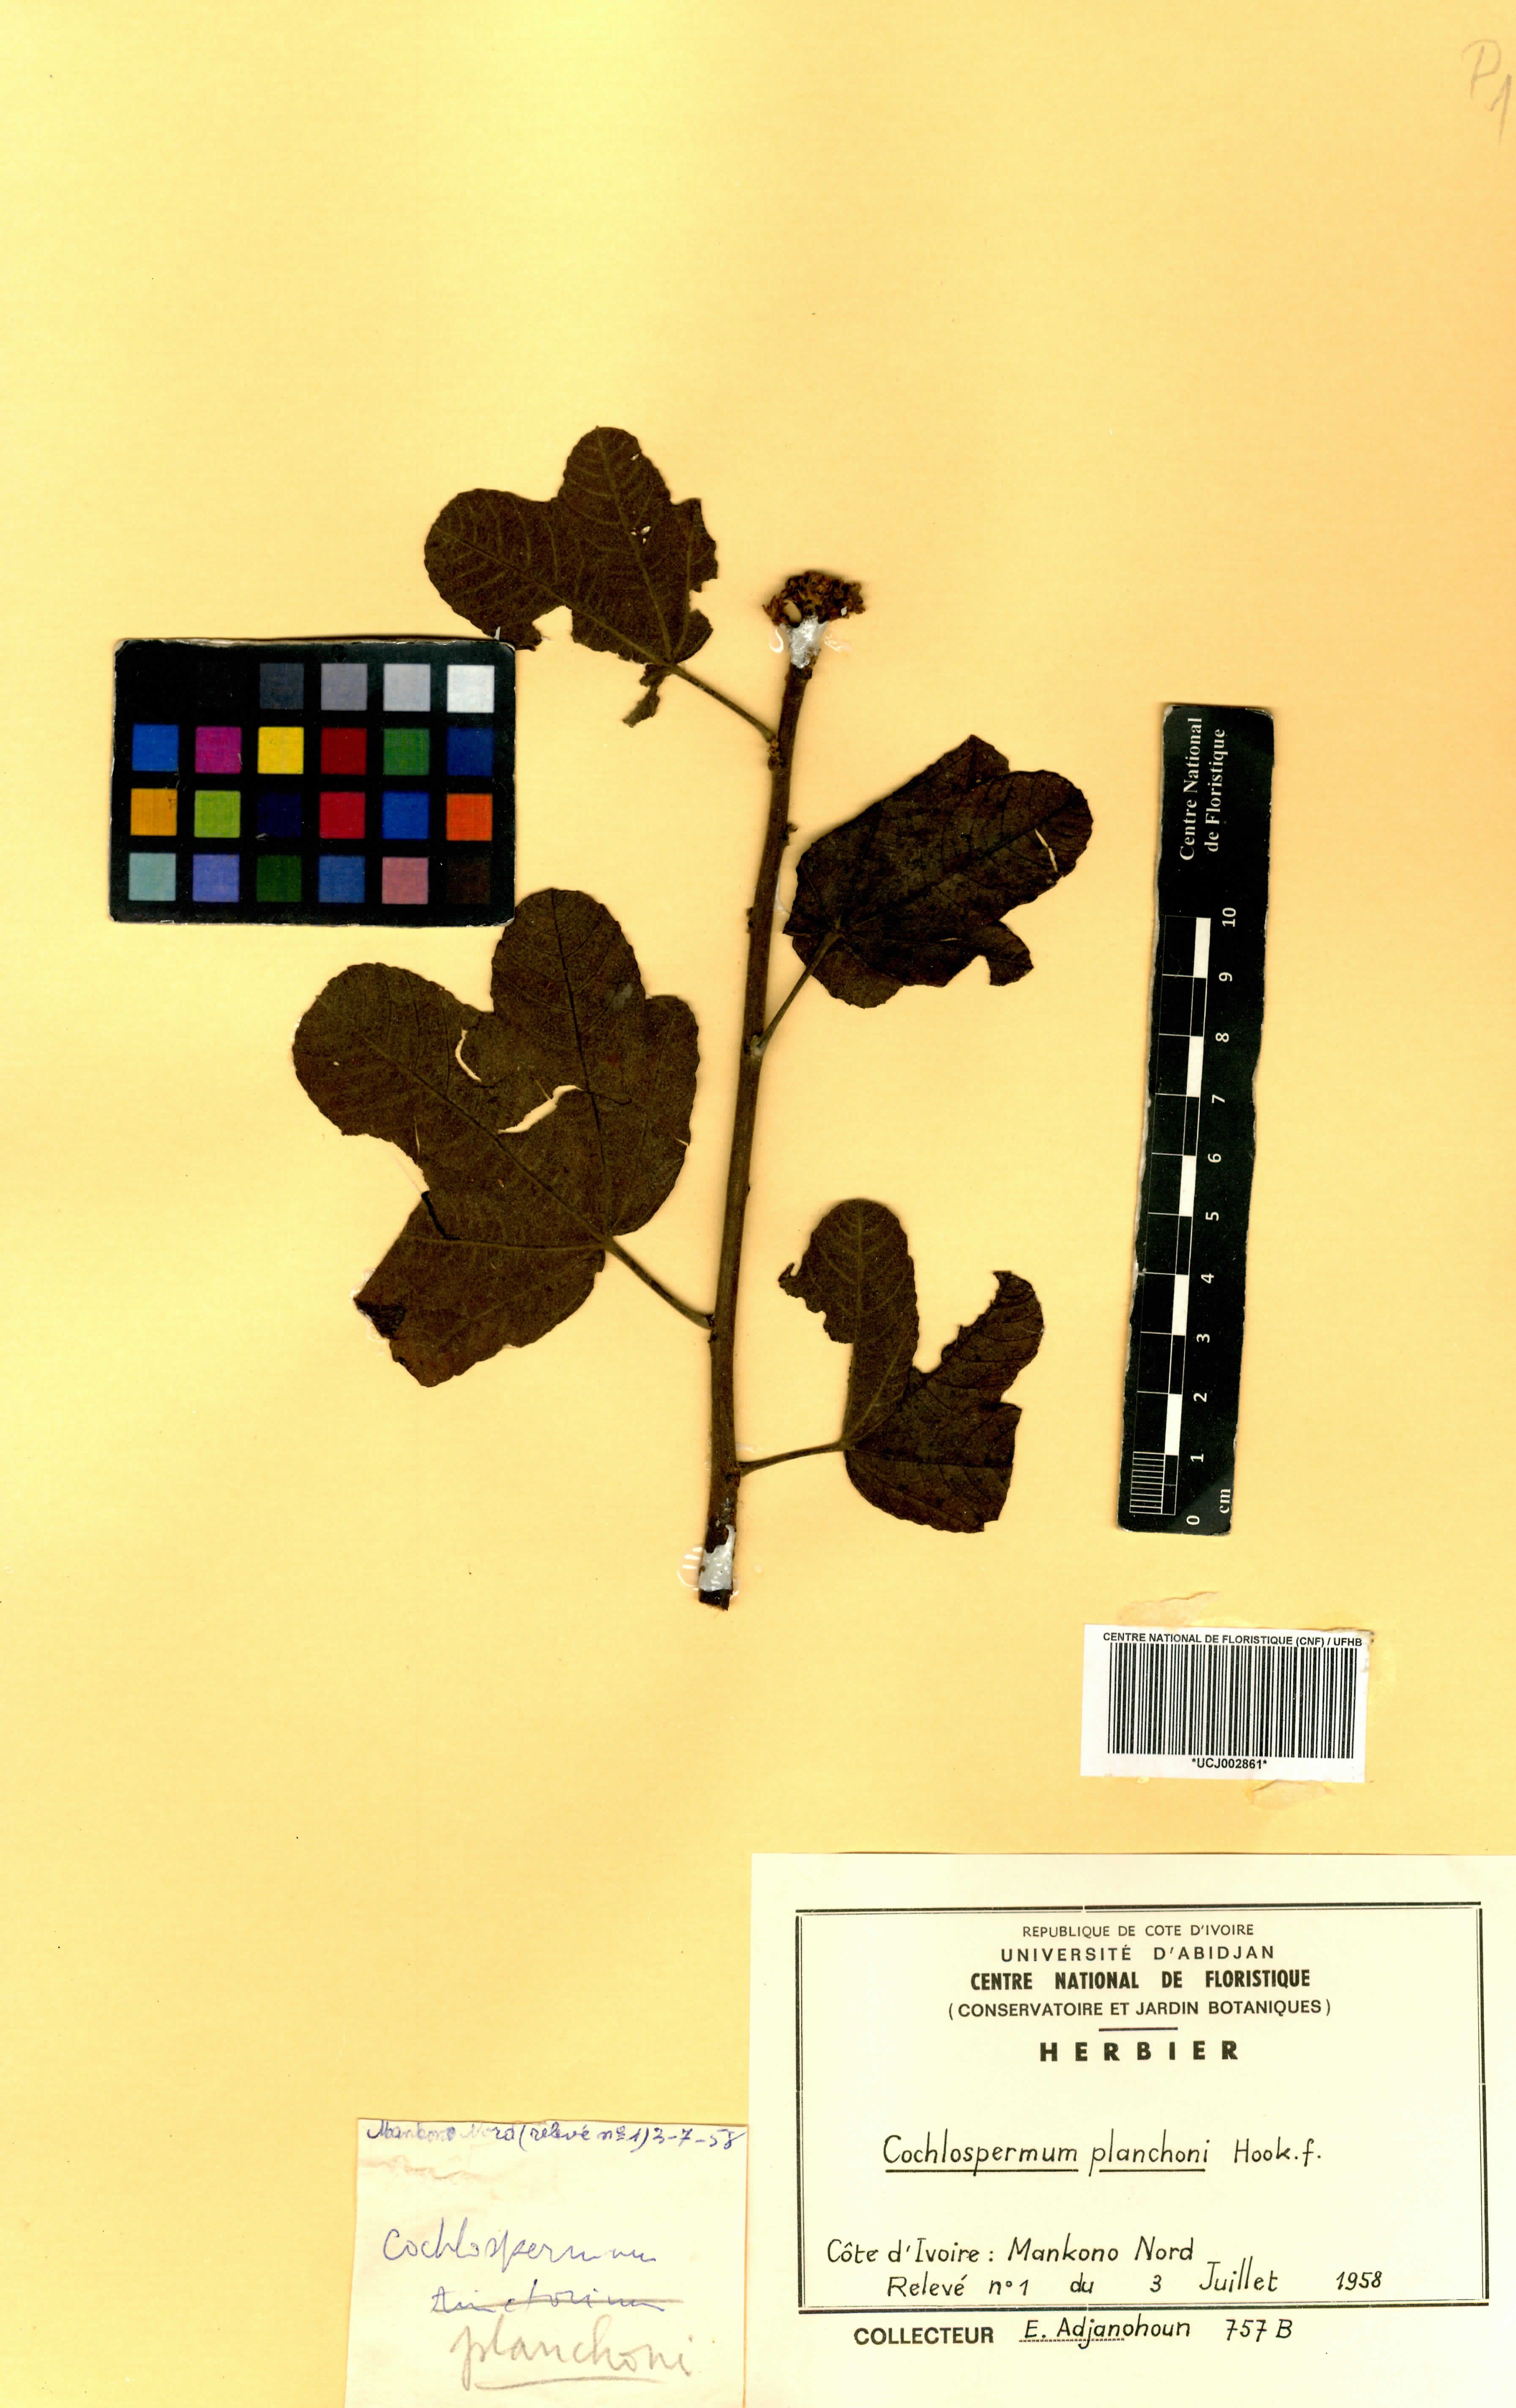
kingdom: Plantae
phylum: Tracheophyta
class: Magnoliopsida
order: Malvales
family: Cochlospermaceae
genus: Cochlospermum
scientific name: Cochlospermum planchonii
